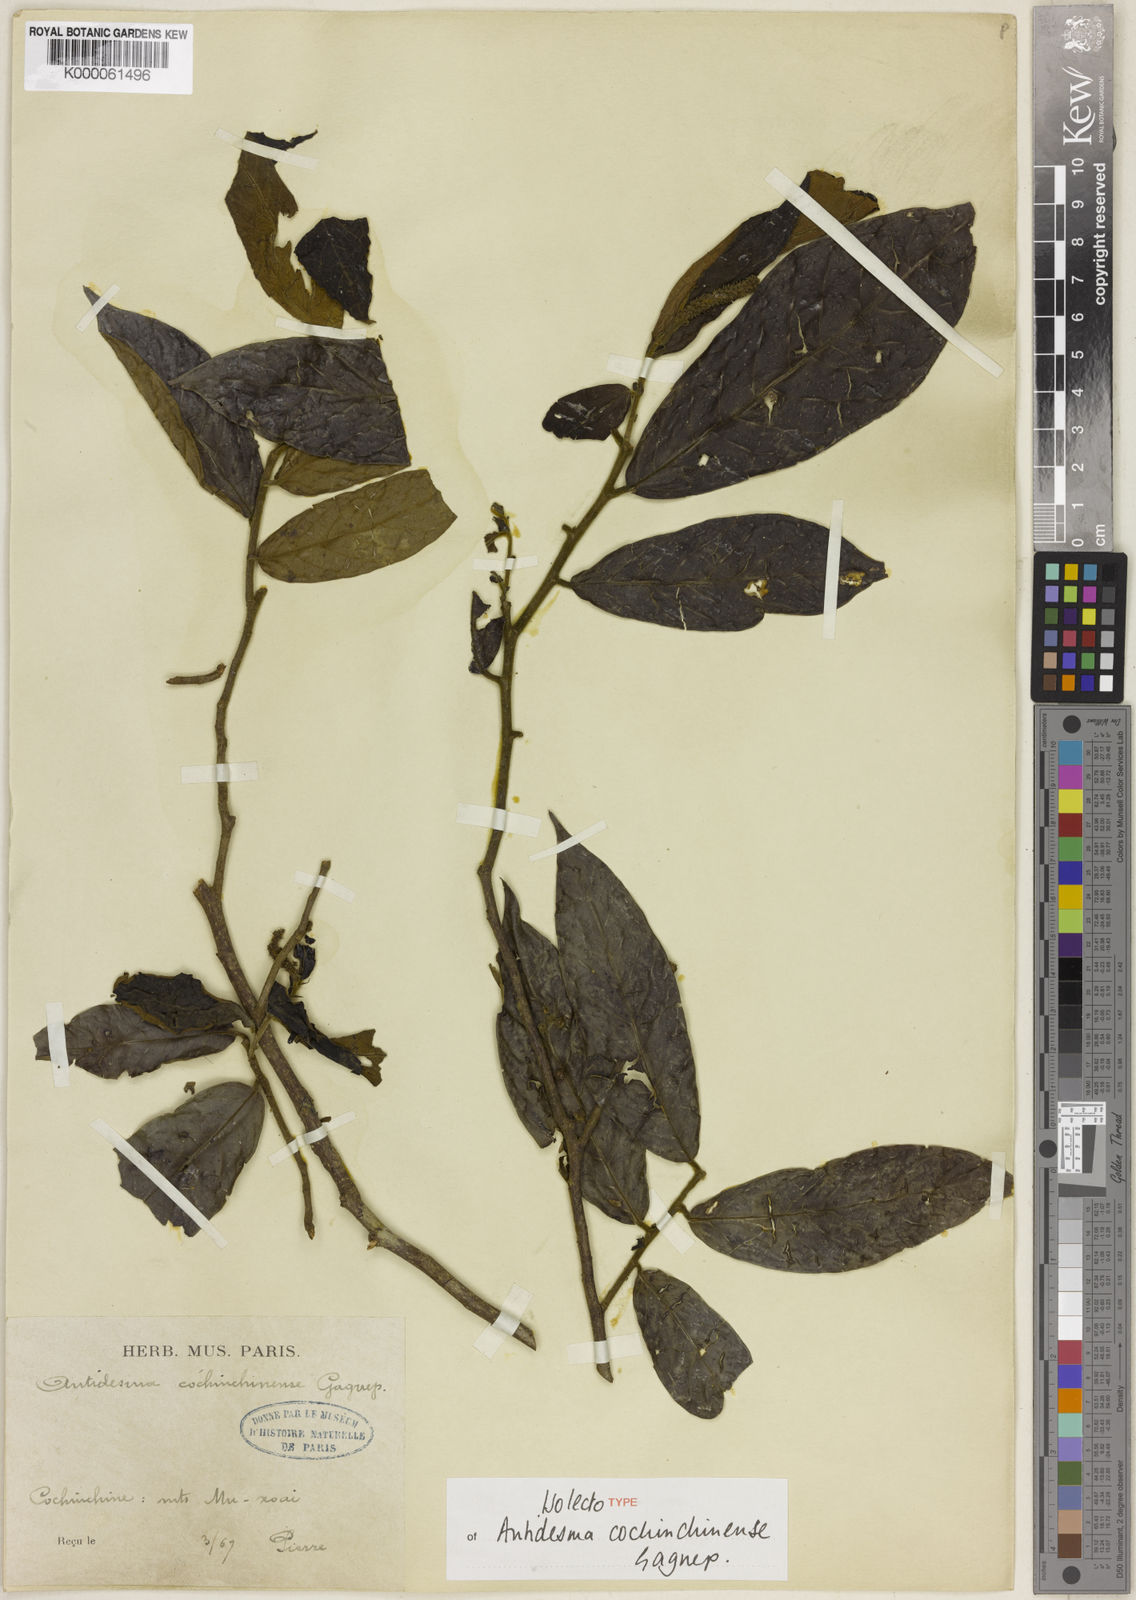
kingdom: Plantae
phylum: Tracheophyta
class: Magnoliopsida
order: Malpighiales
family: Phyllanthaceae
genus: Antidesma
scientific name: Antidesma cochinchinense
